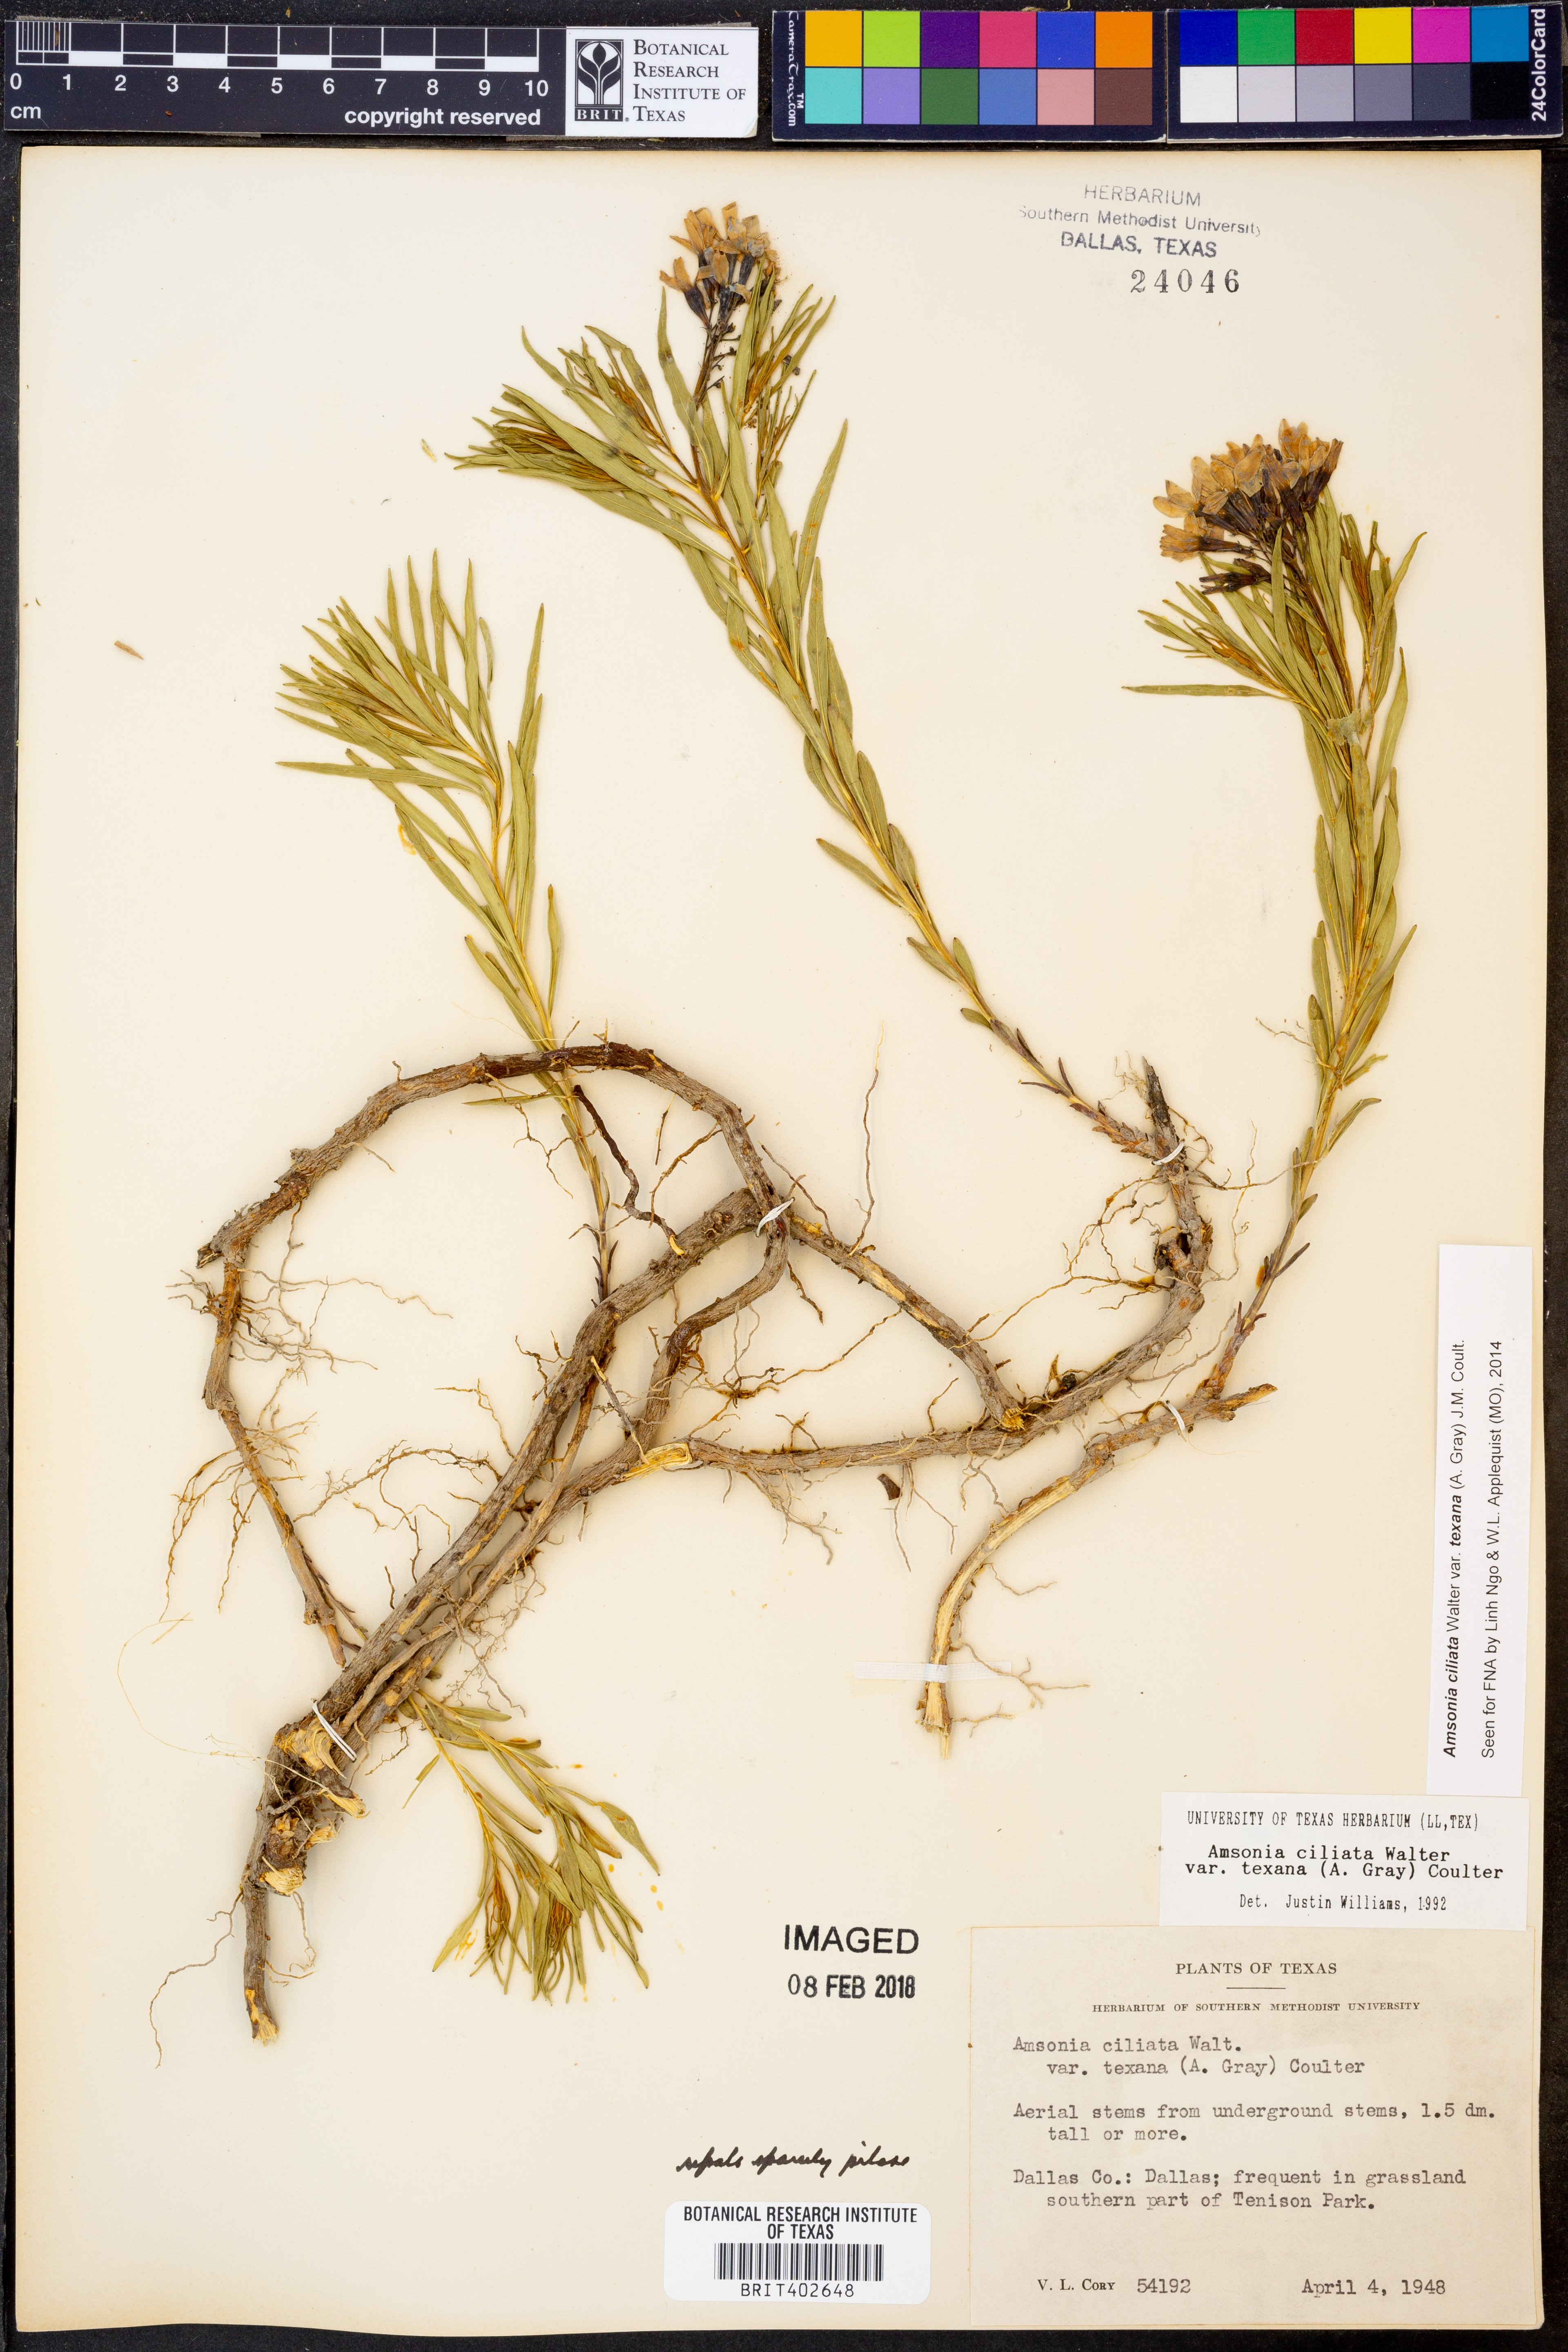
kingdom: Plantae
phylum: Tracheophyta
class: Magnoliopsida
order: Gentianales
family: Apocynaceae
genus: Amsonia
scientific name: Amsonia ciliata
